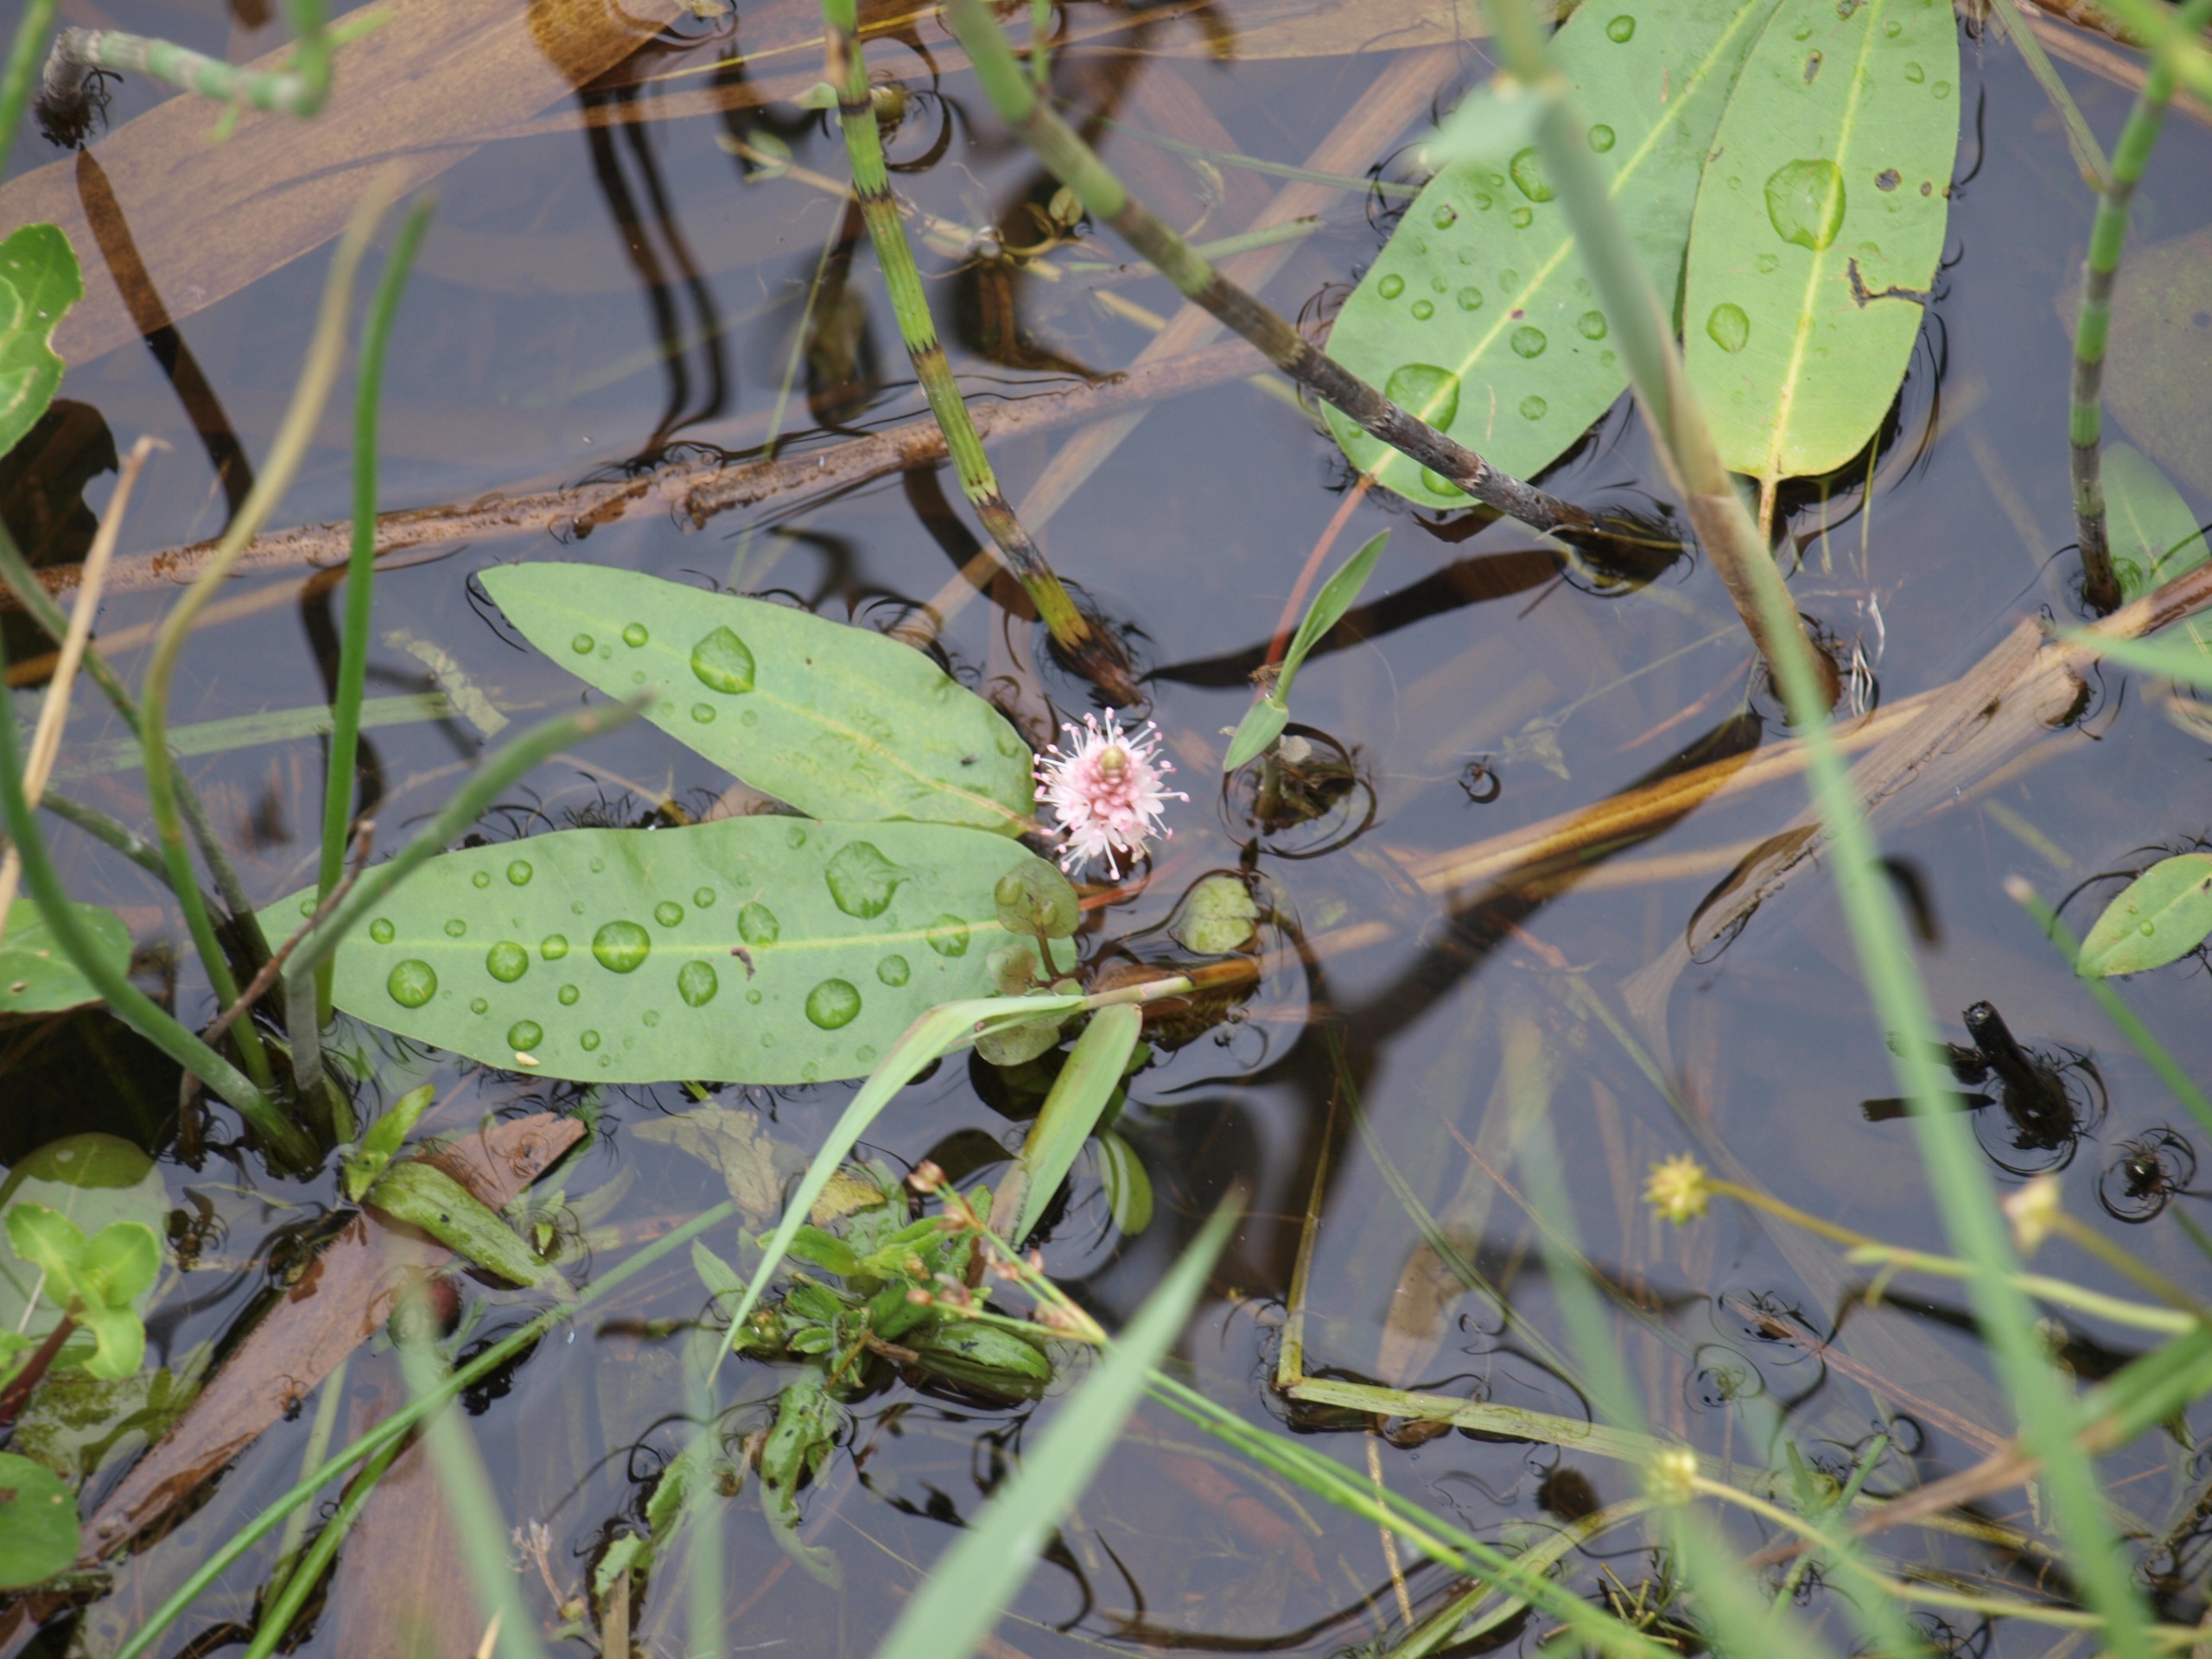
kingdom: Plantae
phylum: Tracheophyta
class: Magnoliopsida
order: Caryophyllales
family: Polygonaceae
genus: Persicaria
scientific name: Persicaria amphibia
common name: Vand-pileurt
